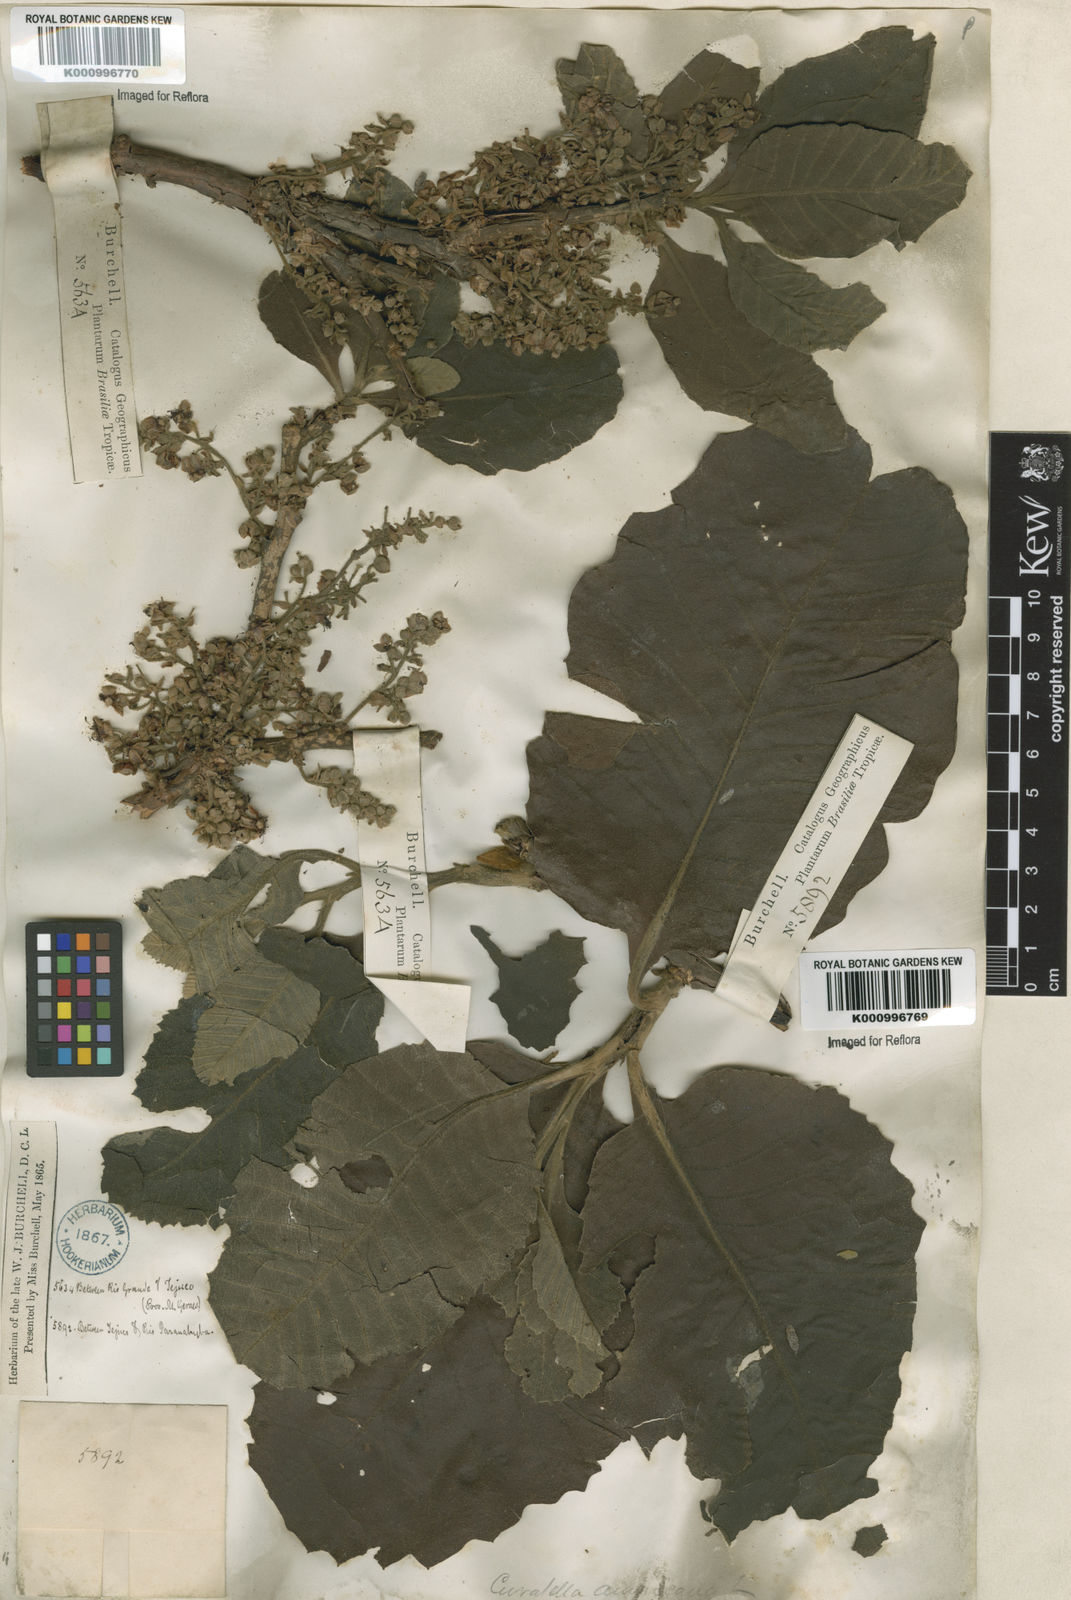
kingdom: Plantae
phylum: Tracheophyta
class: Magnoliopsida
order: Dilleniales
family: Dilleniaceae
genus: Curatella
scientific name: Curatella americana
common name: Sandpaper tree
